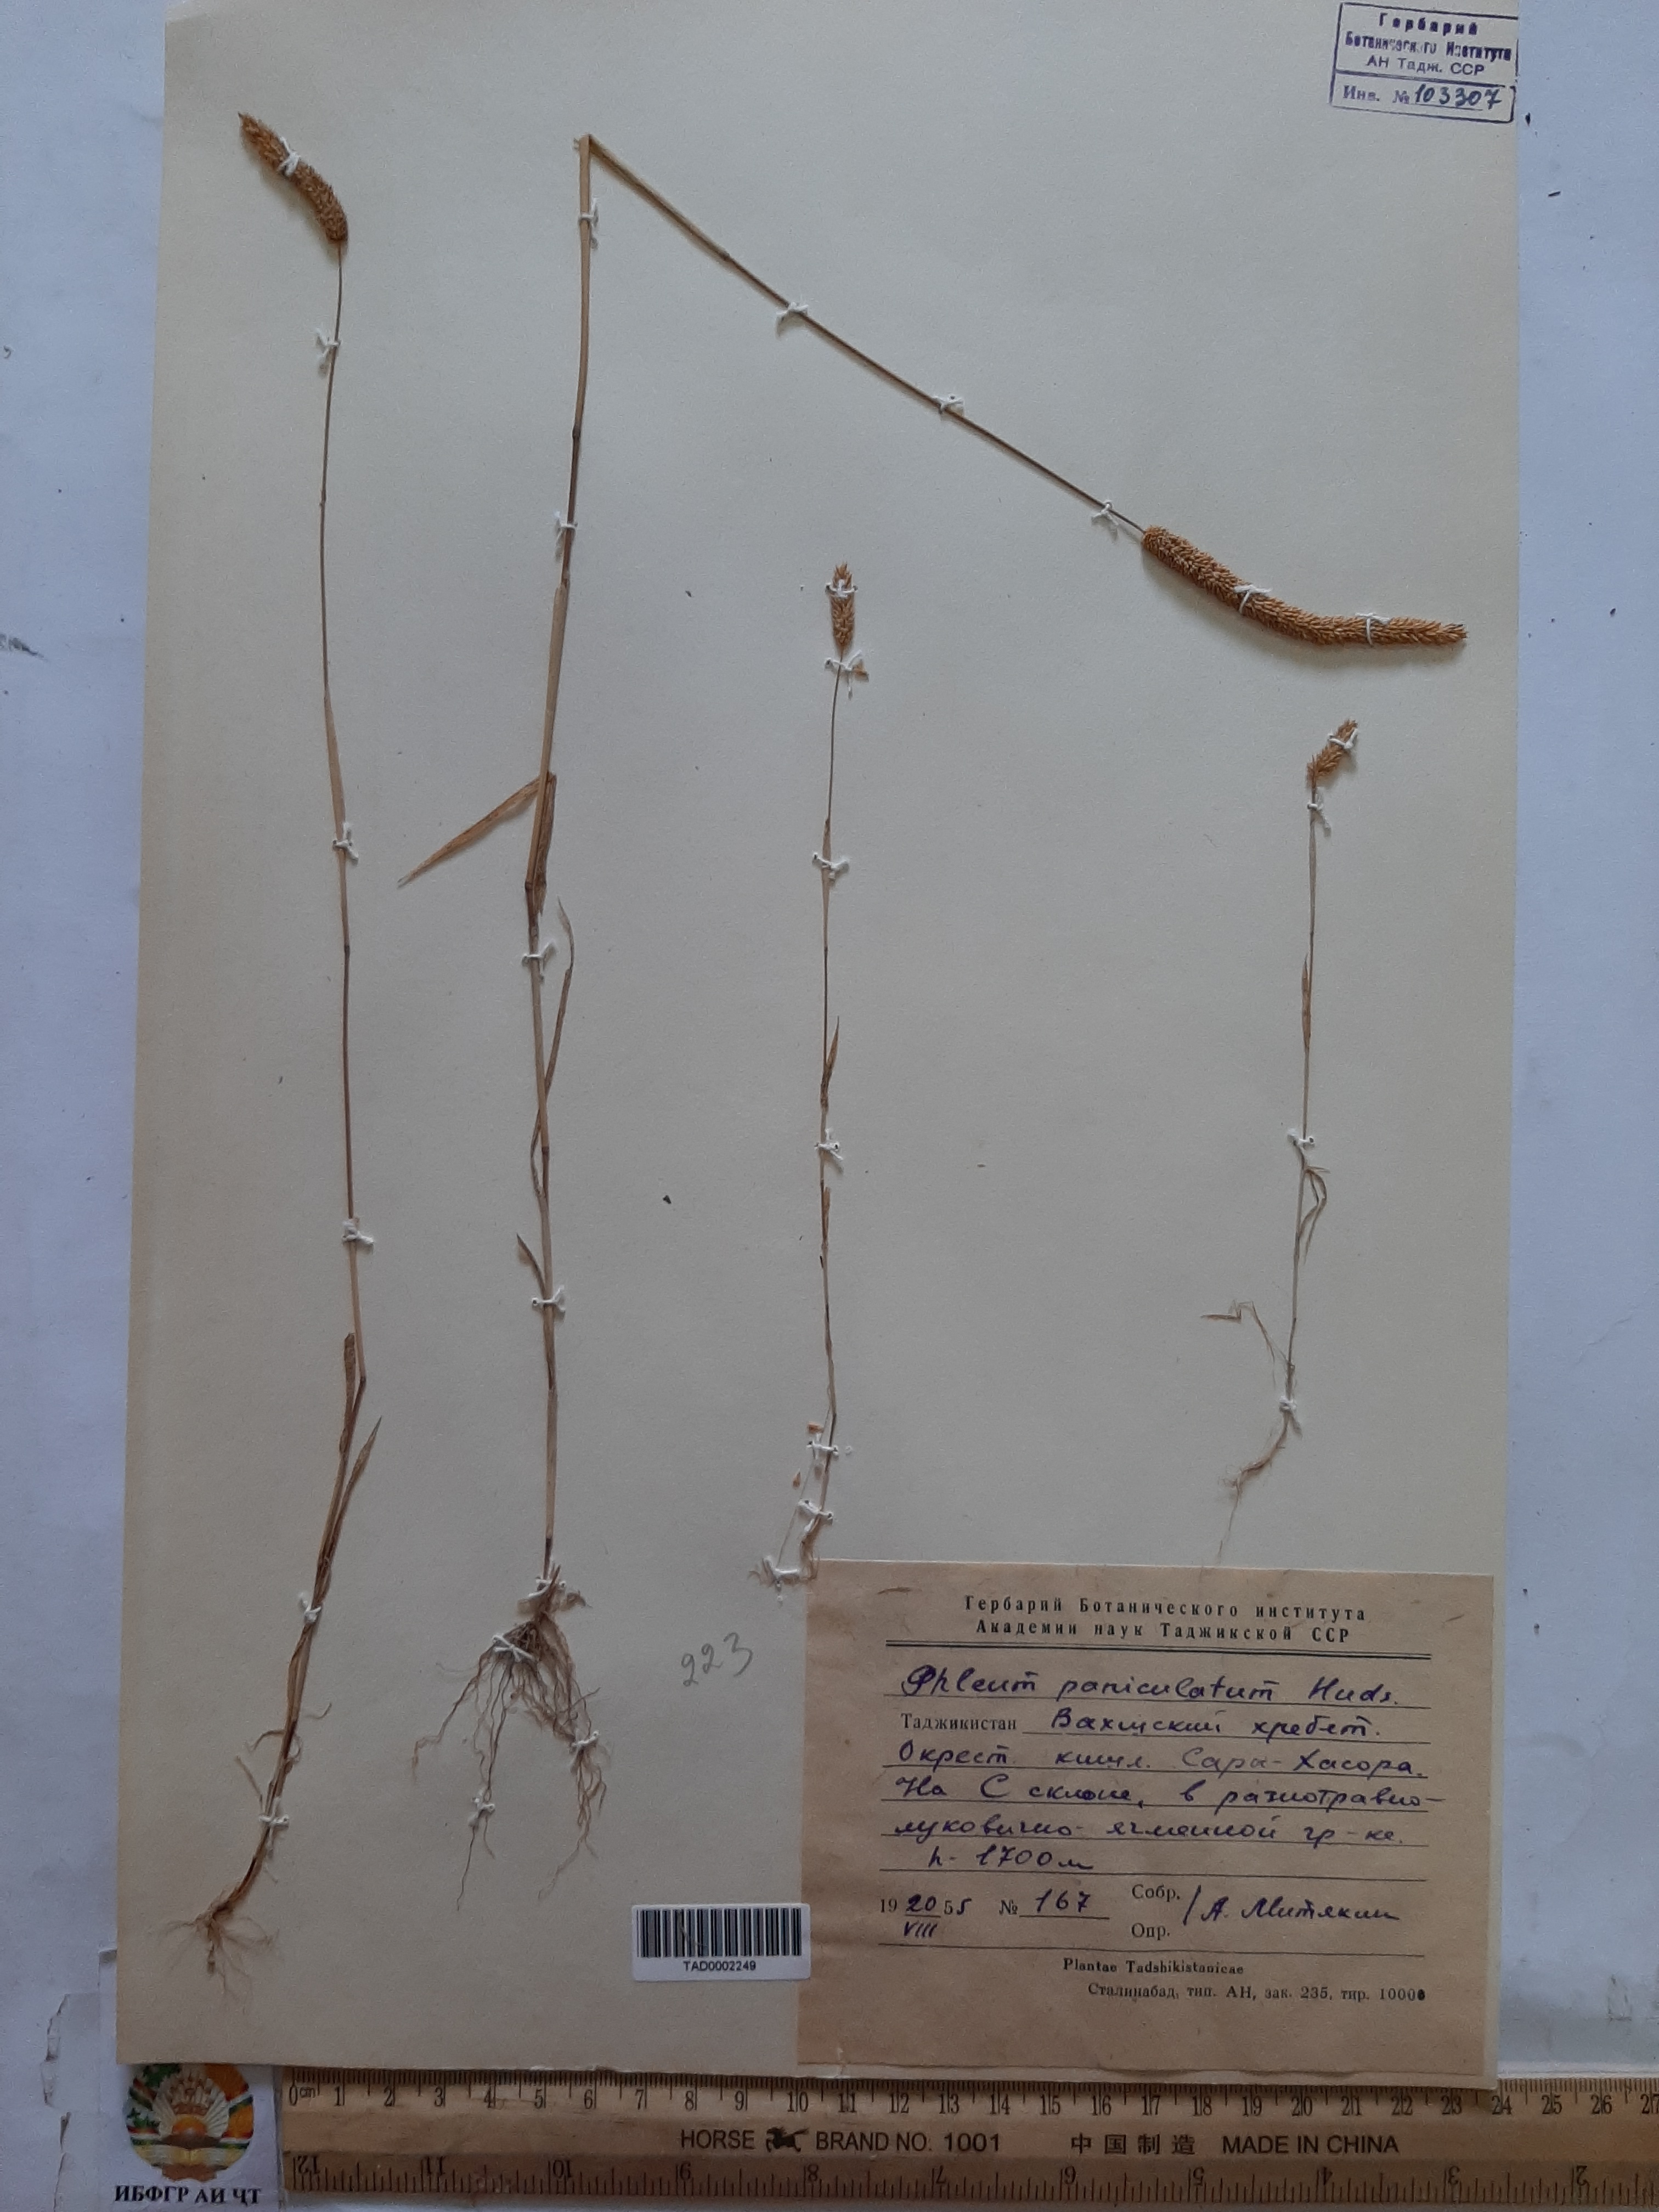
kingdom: Plantae
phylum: Tracheophyta
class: Liliopsida
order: Poales
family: Poaceae
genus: Phleum
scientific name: Phleum paniculatum
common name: British timothy
